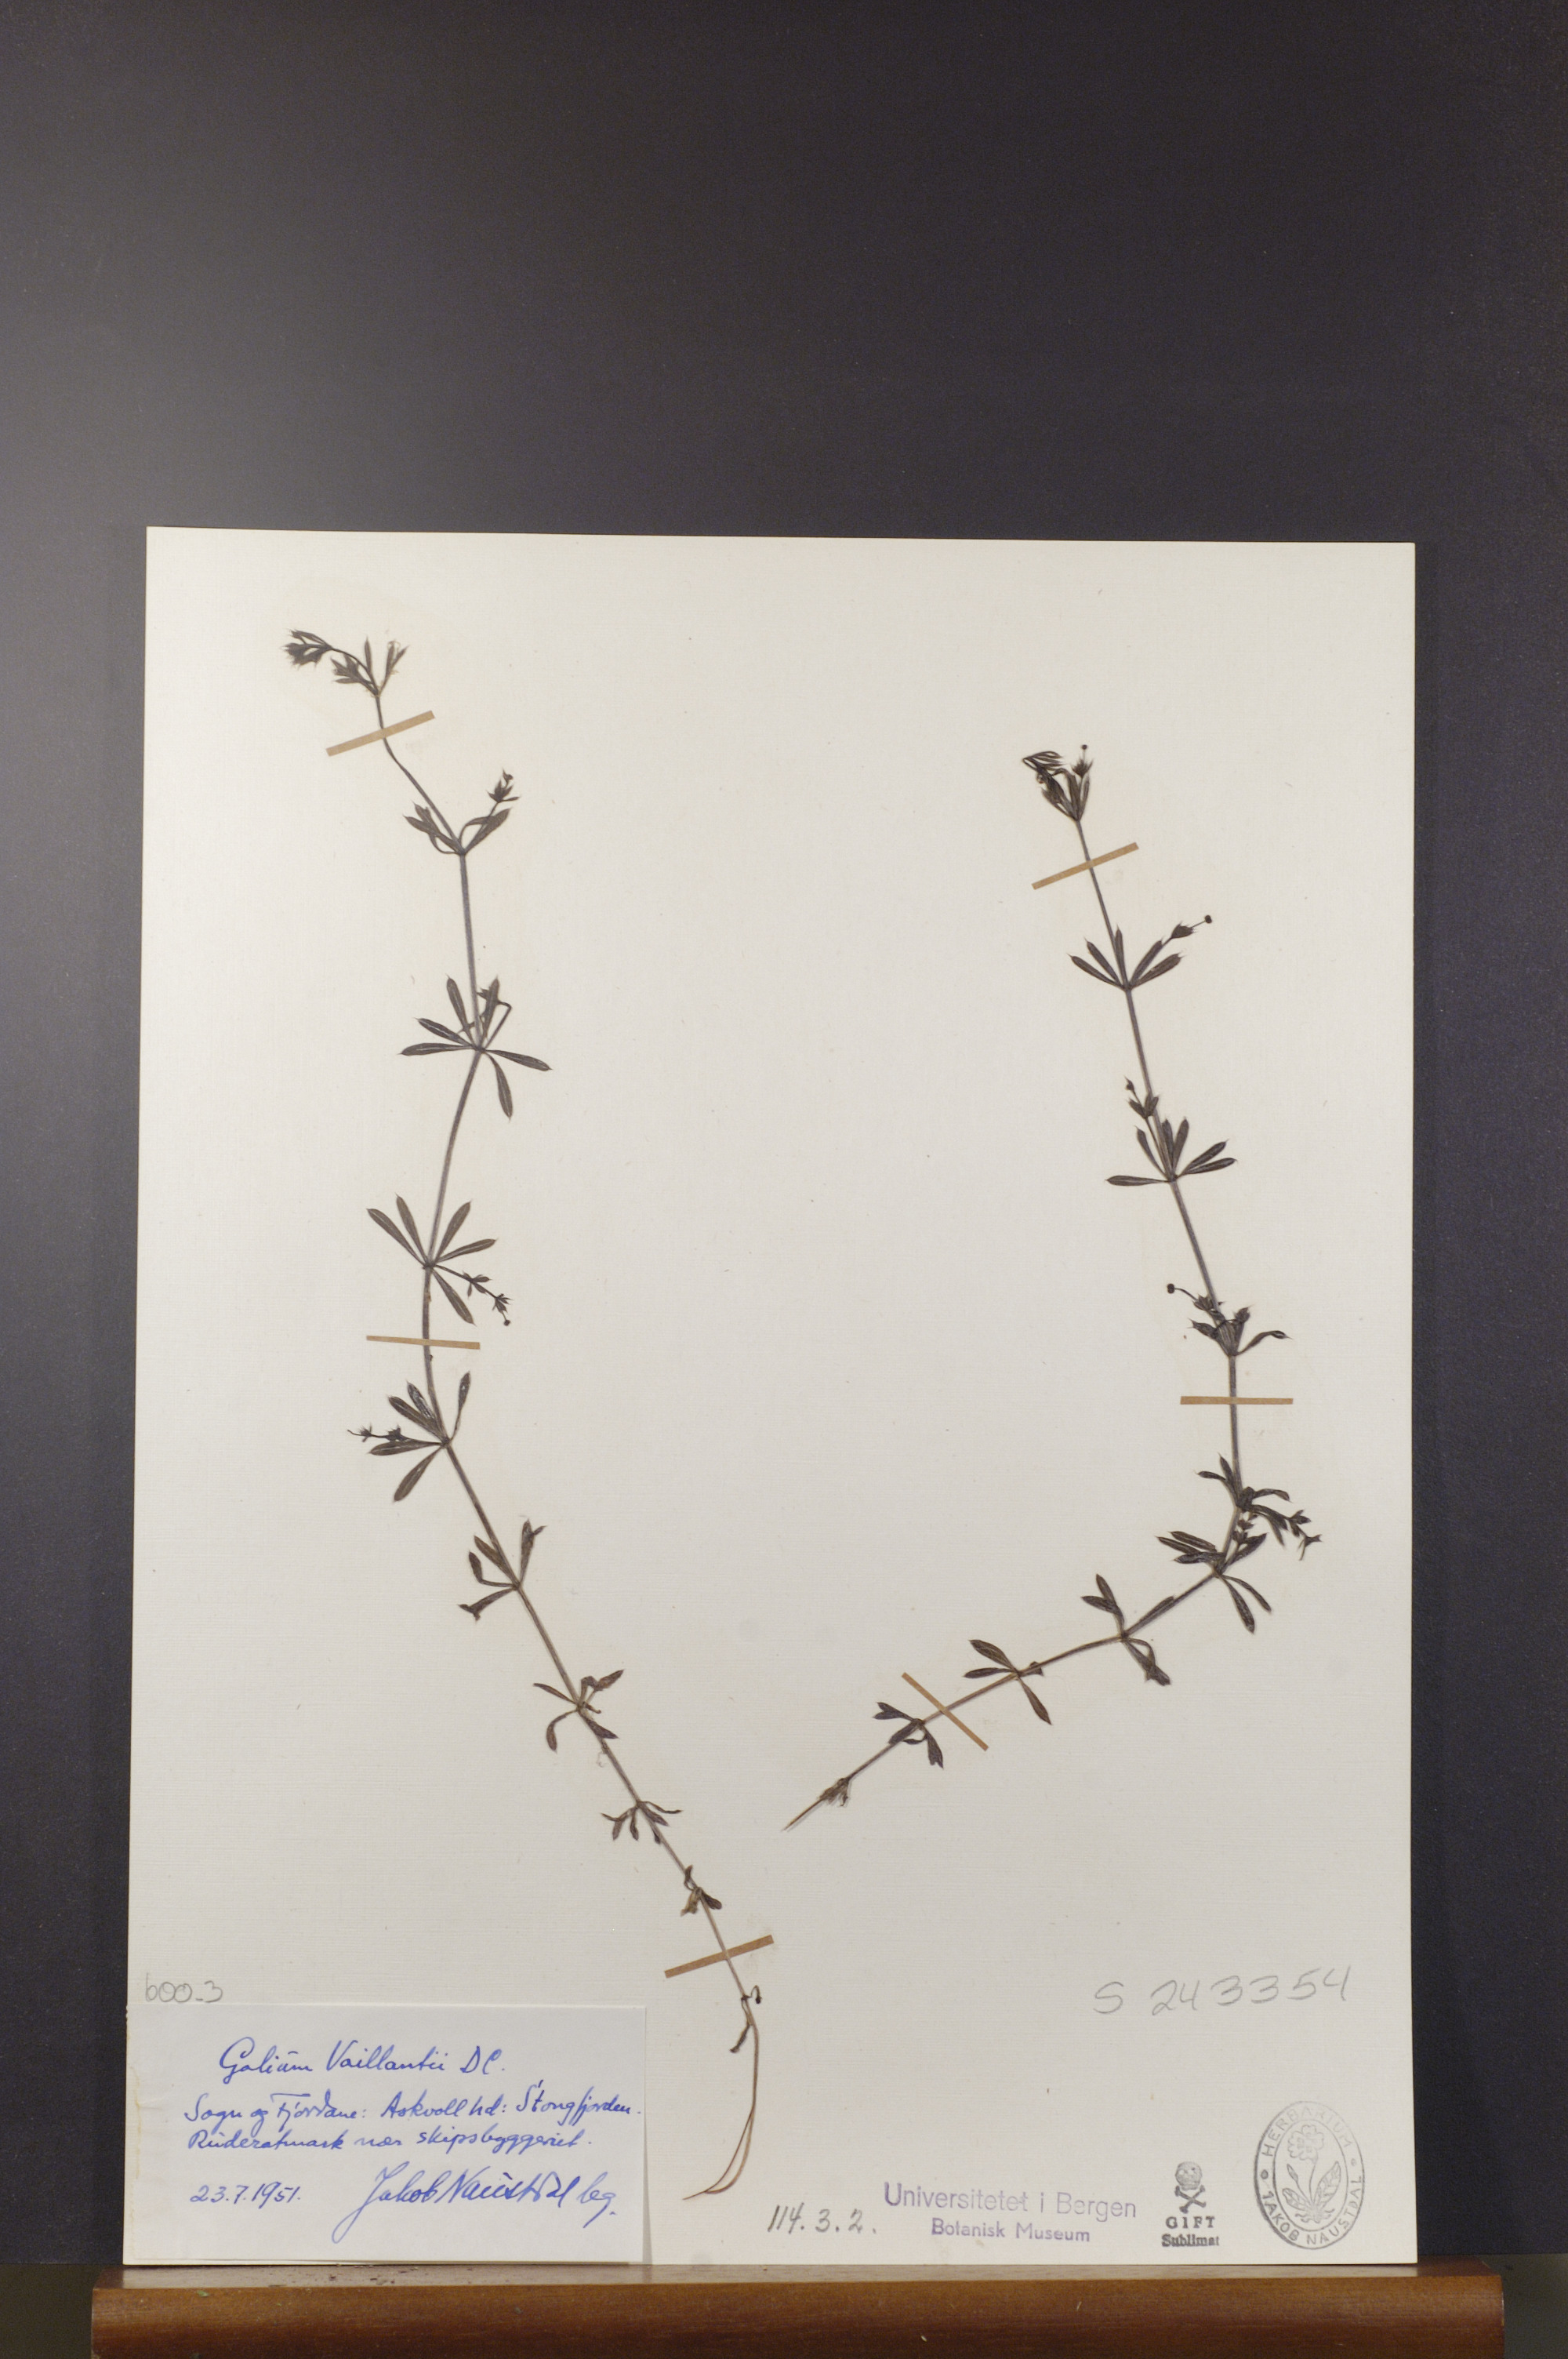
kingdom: Plantae
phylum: Tracheophyta
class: Magnoliopsida
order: Gentianales
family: Rubiaceae
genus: Galium
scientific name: Galium spurium
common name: False cleavers
